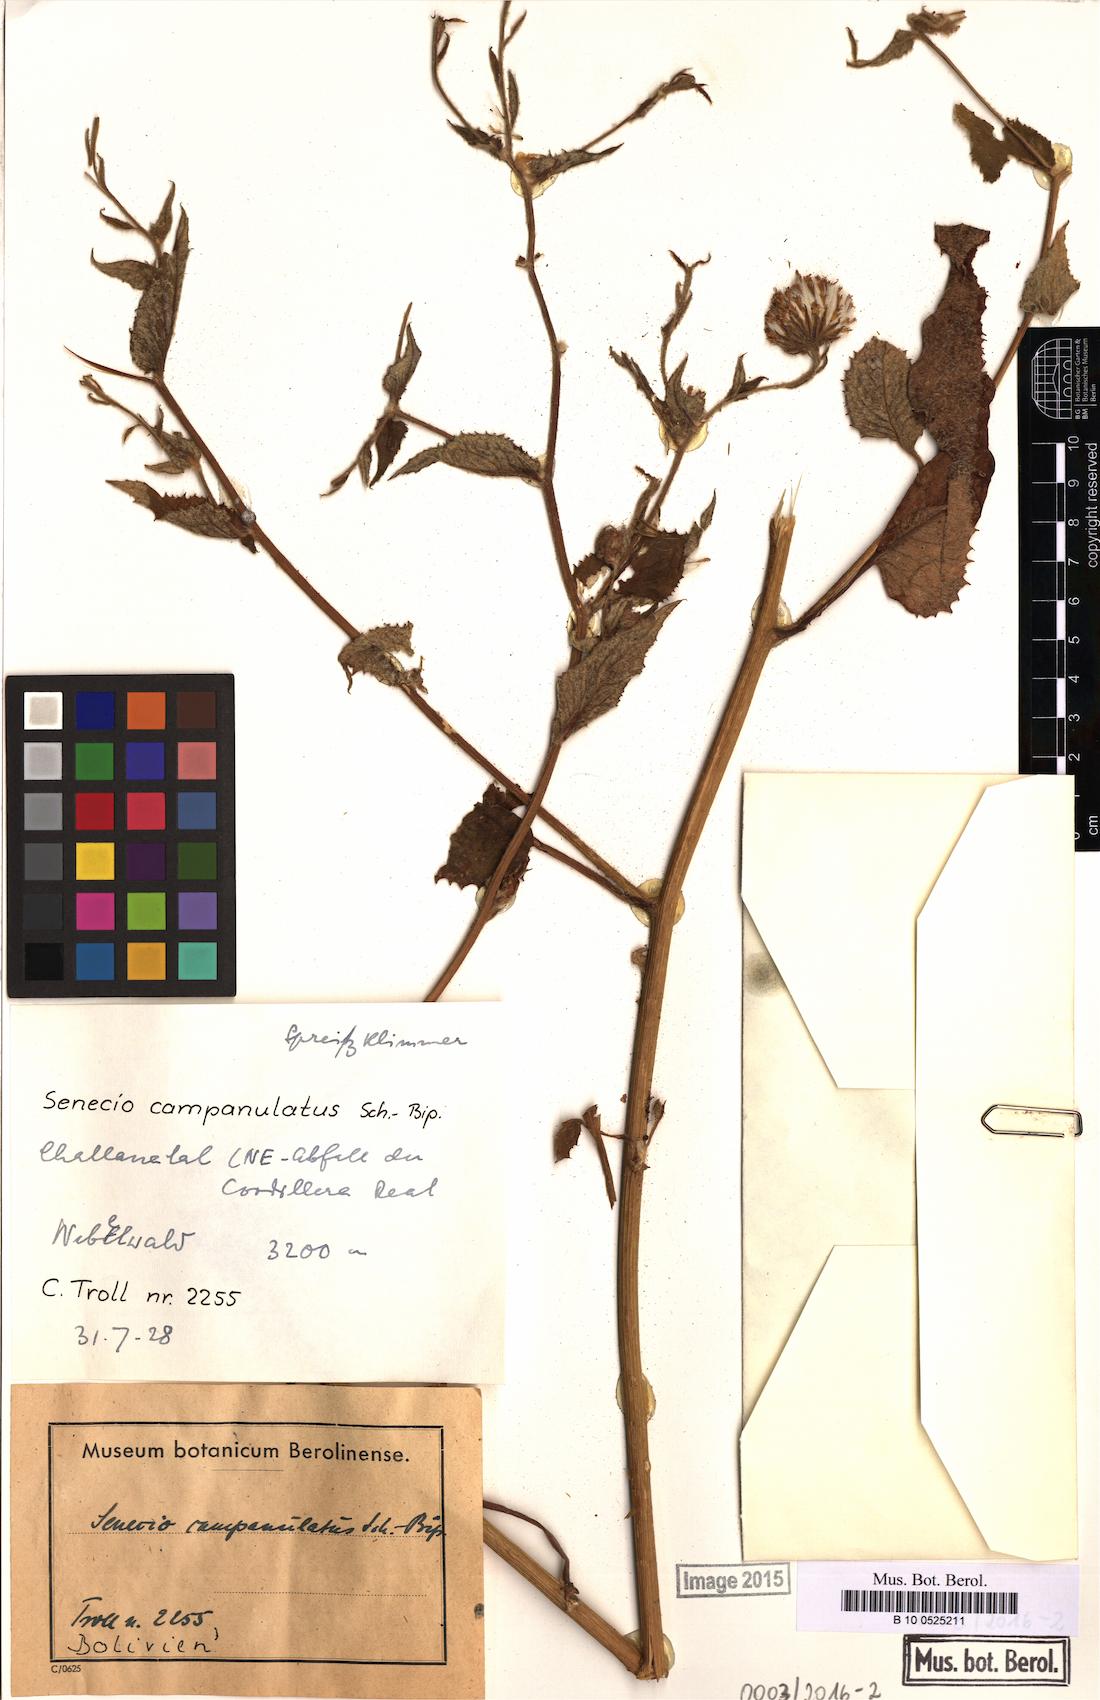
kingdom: Plantae
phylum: Tracheophyta
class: Magnoliopsida
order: Asterales
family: Asteraceae
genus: Cremanthodium
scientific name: Cremanthodium campanulatum
